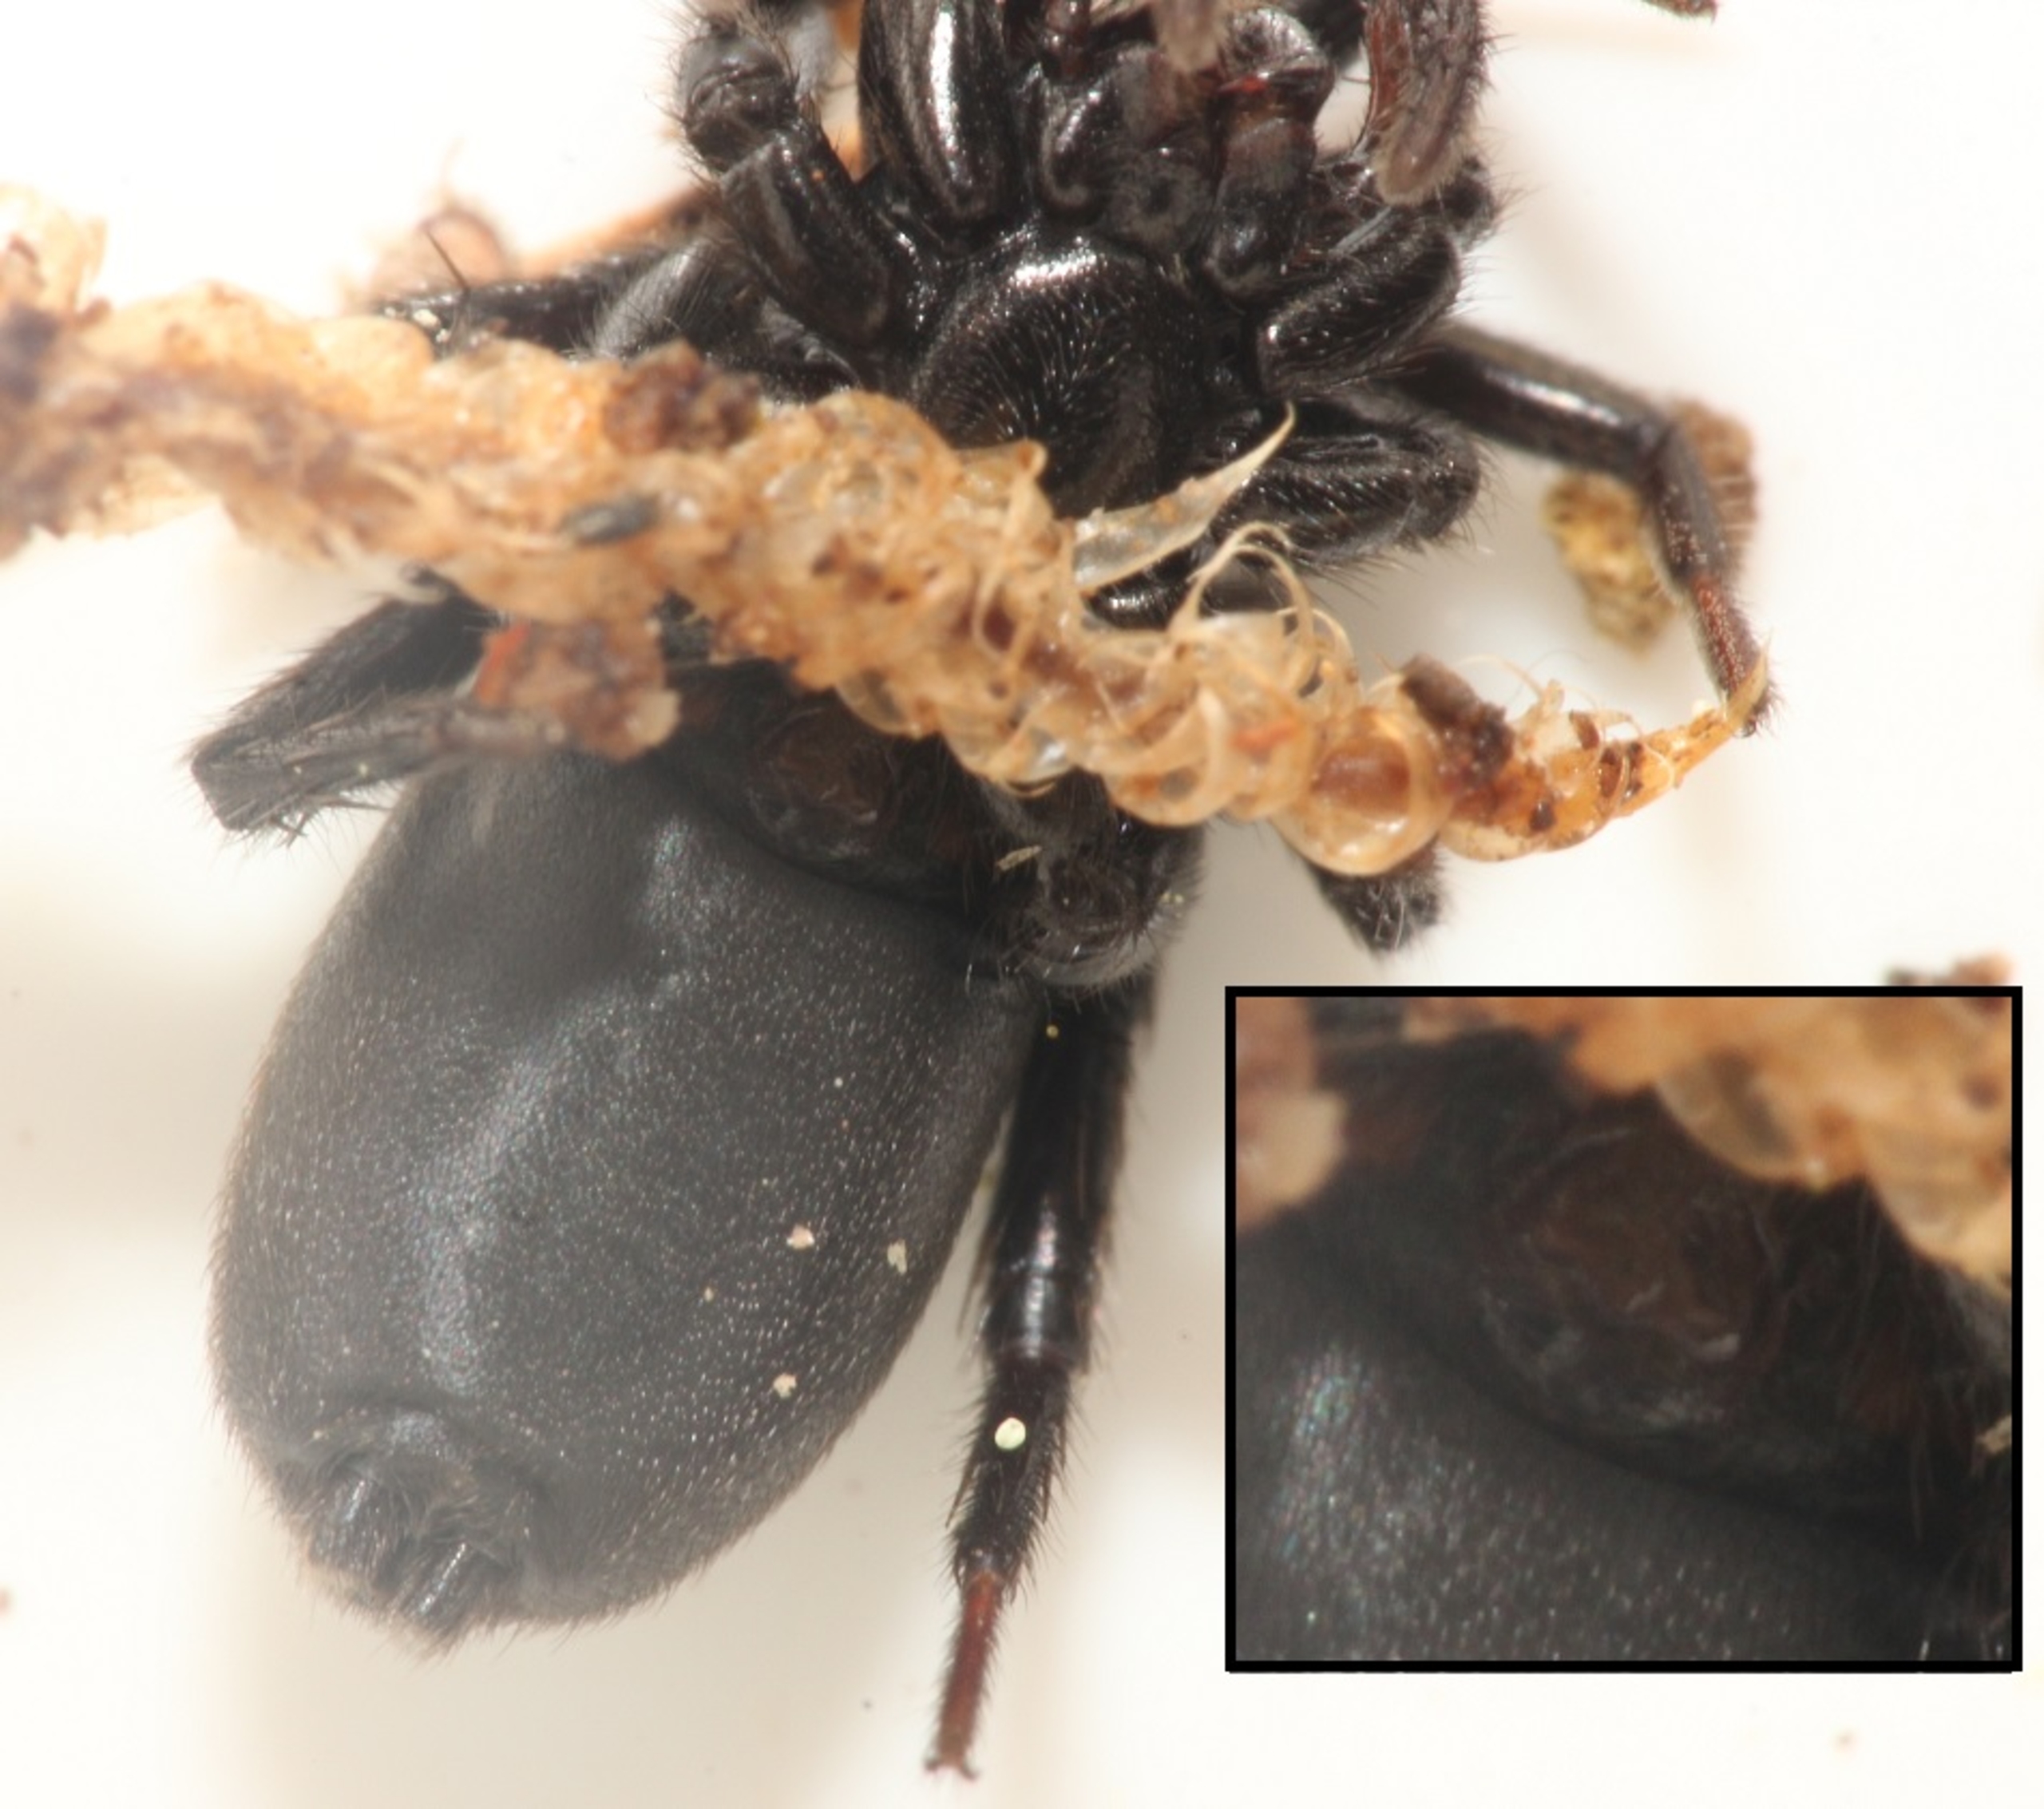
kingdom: Animalia
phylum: Arthropoda
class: Arachnida
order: Araneae
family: Gnaphosidae
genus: Zelotes
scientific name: Zelotes
